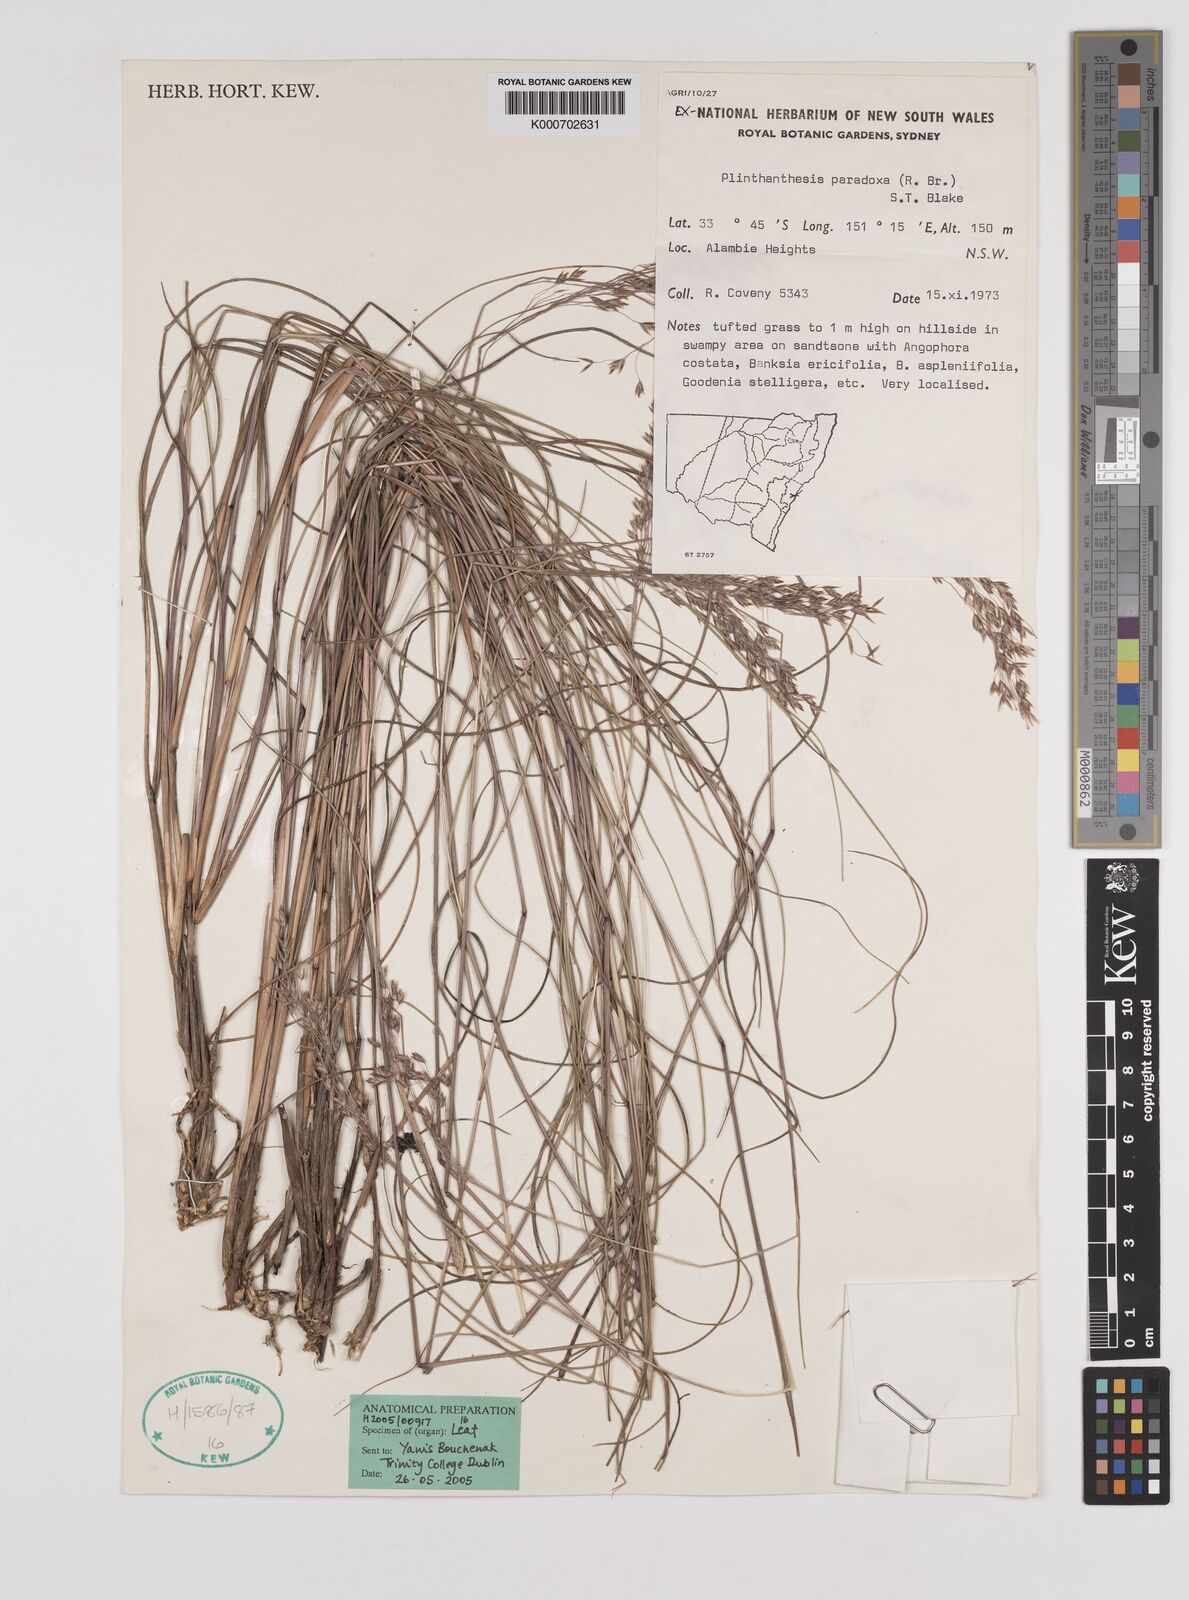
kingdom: Plantae
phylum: Tracheophyta
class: Liliopsida
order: Poales
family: Poaceae
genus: Plinthanthesis
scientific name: Plinthanthesis paradoxa
